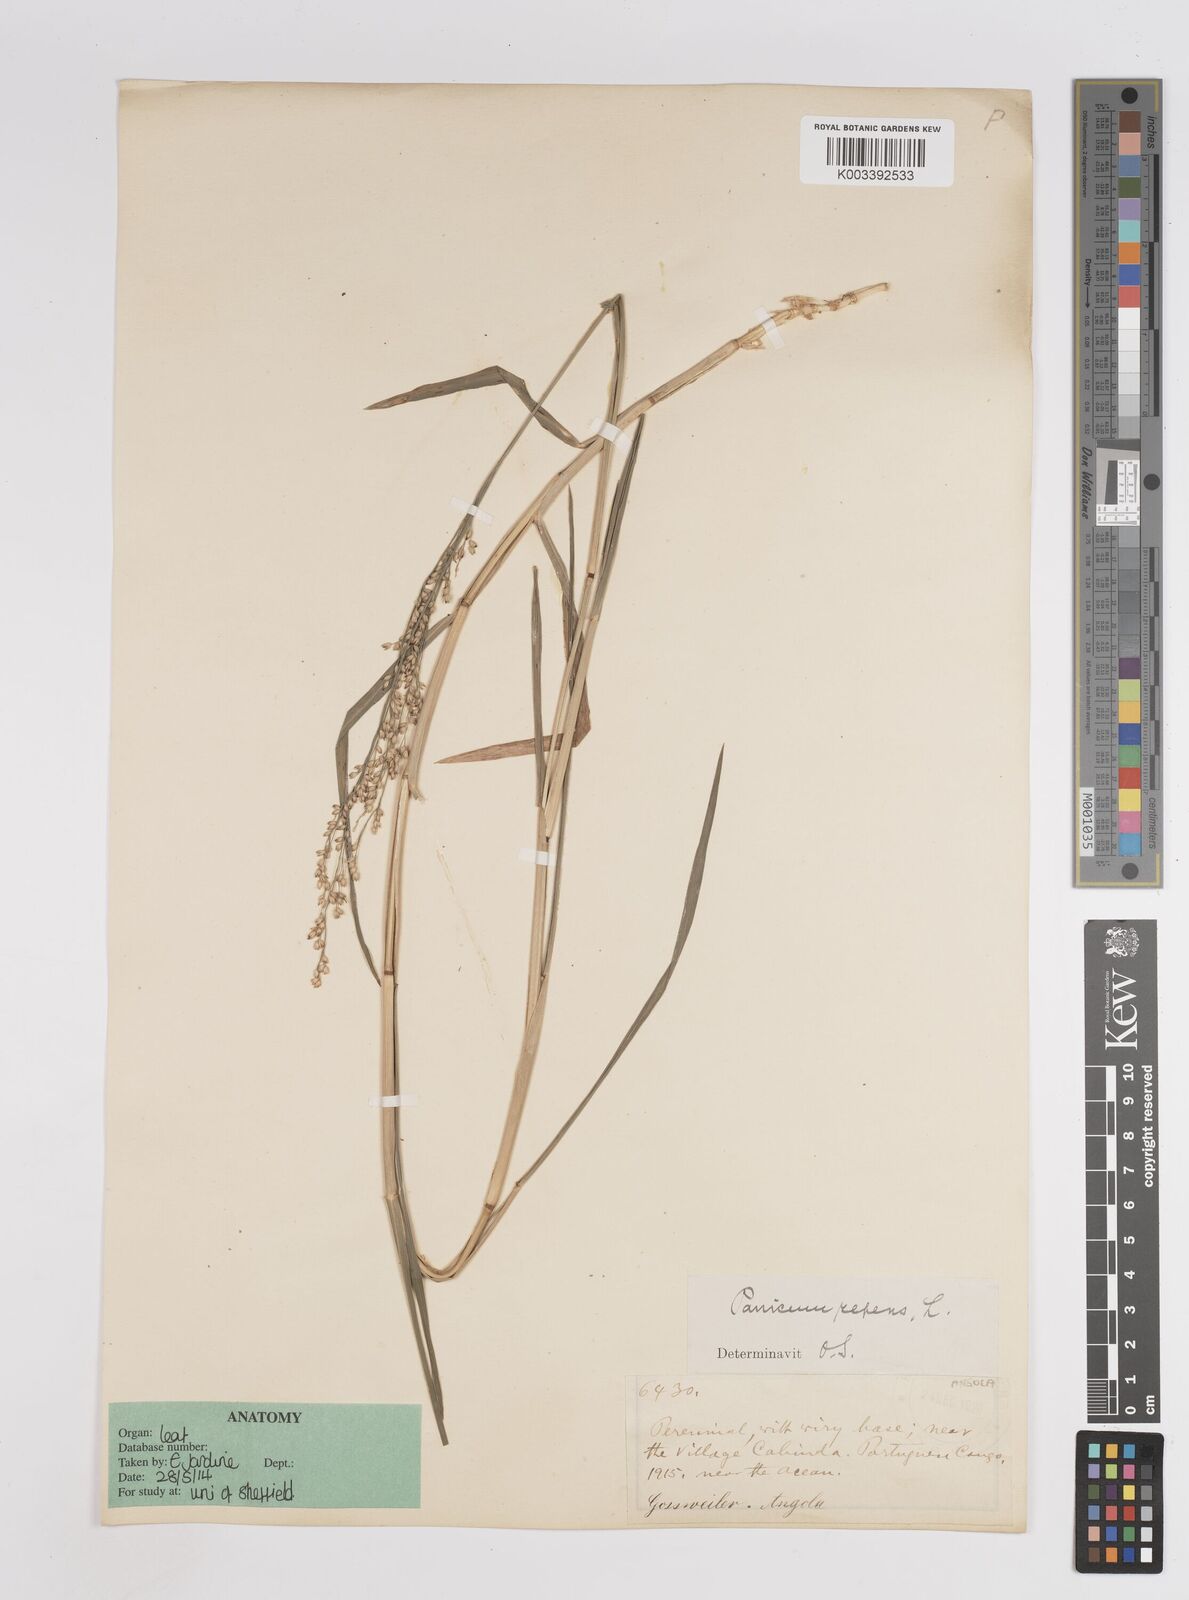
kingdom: Plantae
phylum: Tracheophyta
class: Liliopsida
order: Poales
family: Poaceae
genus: Panicum
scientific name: Panicum repens
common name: Torpedo grass
